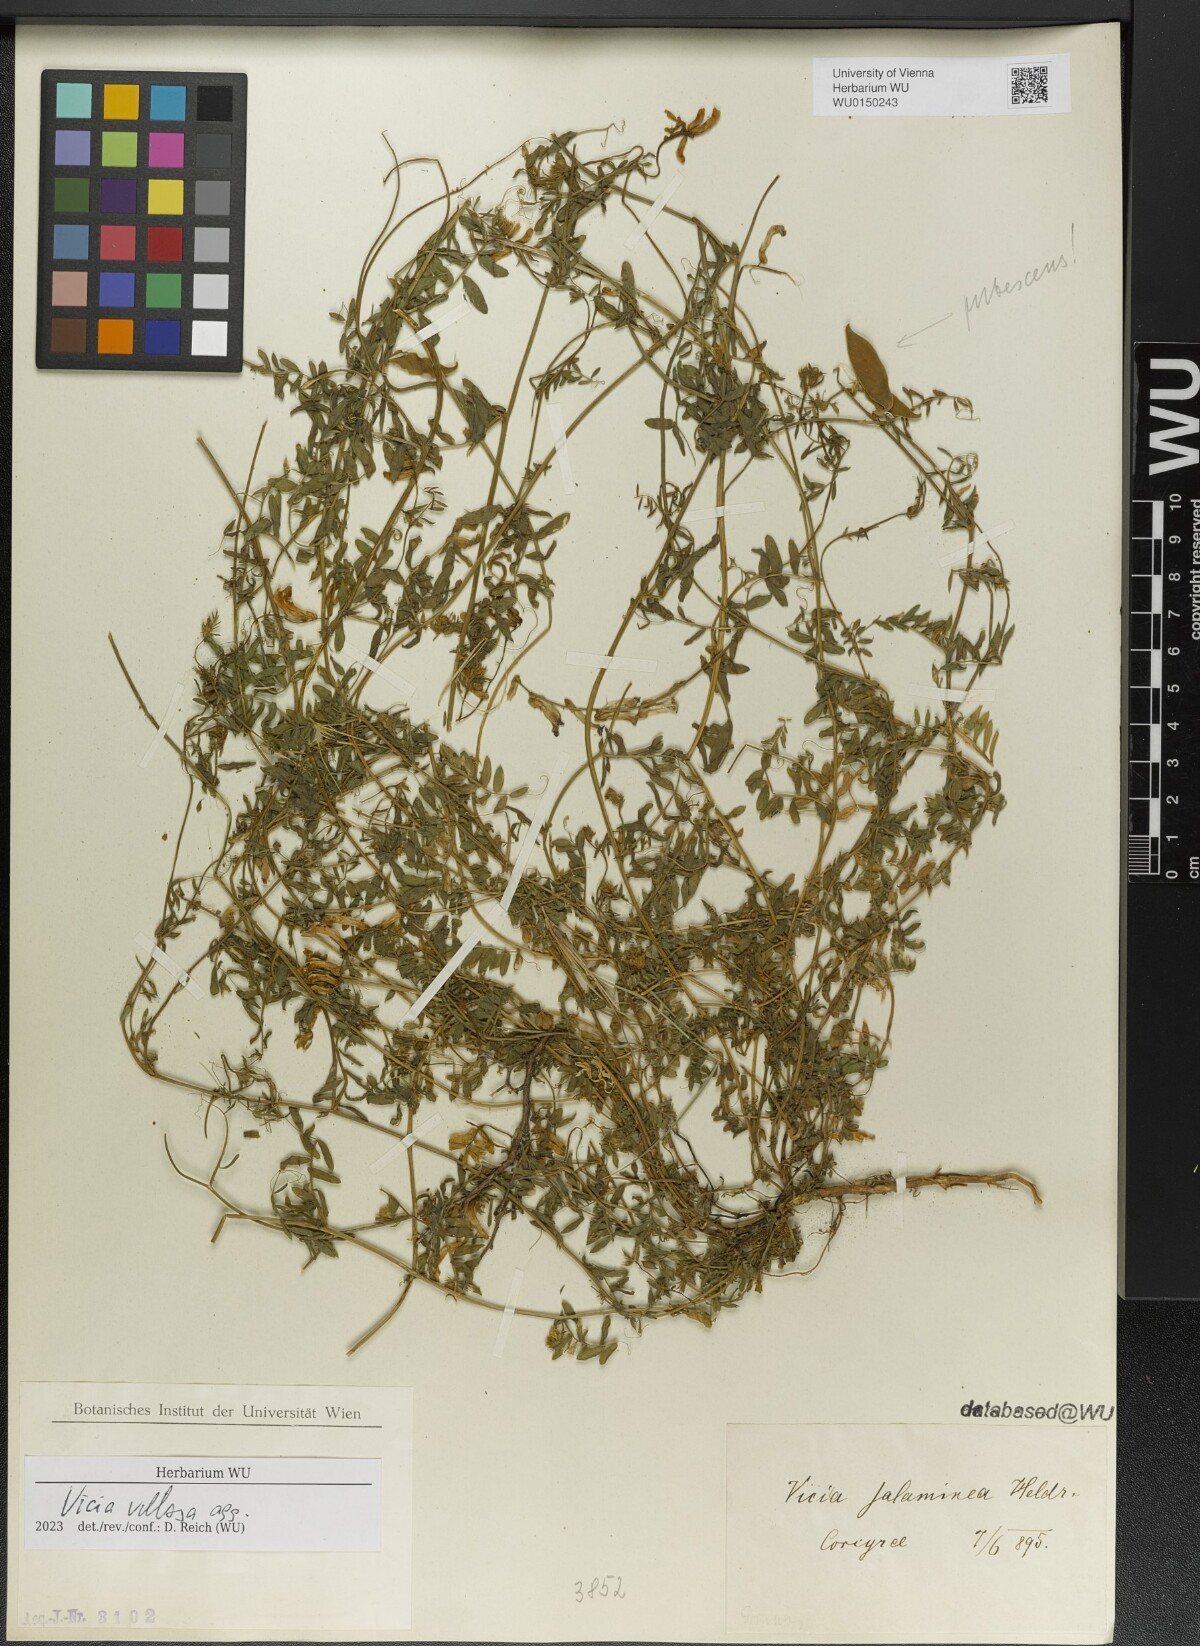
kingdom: Plantae
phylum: Tracheophyta
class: Magnoliopsida
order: Fabales
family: Fabaceae
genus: Vicia
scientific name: Vicia villosa
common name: Fodder vetch
